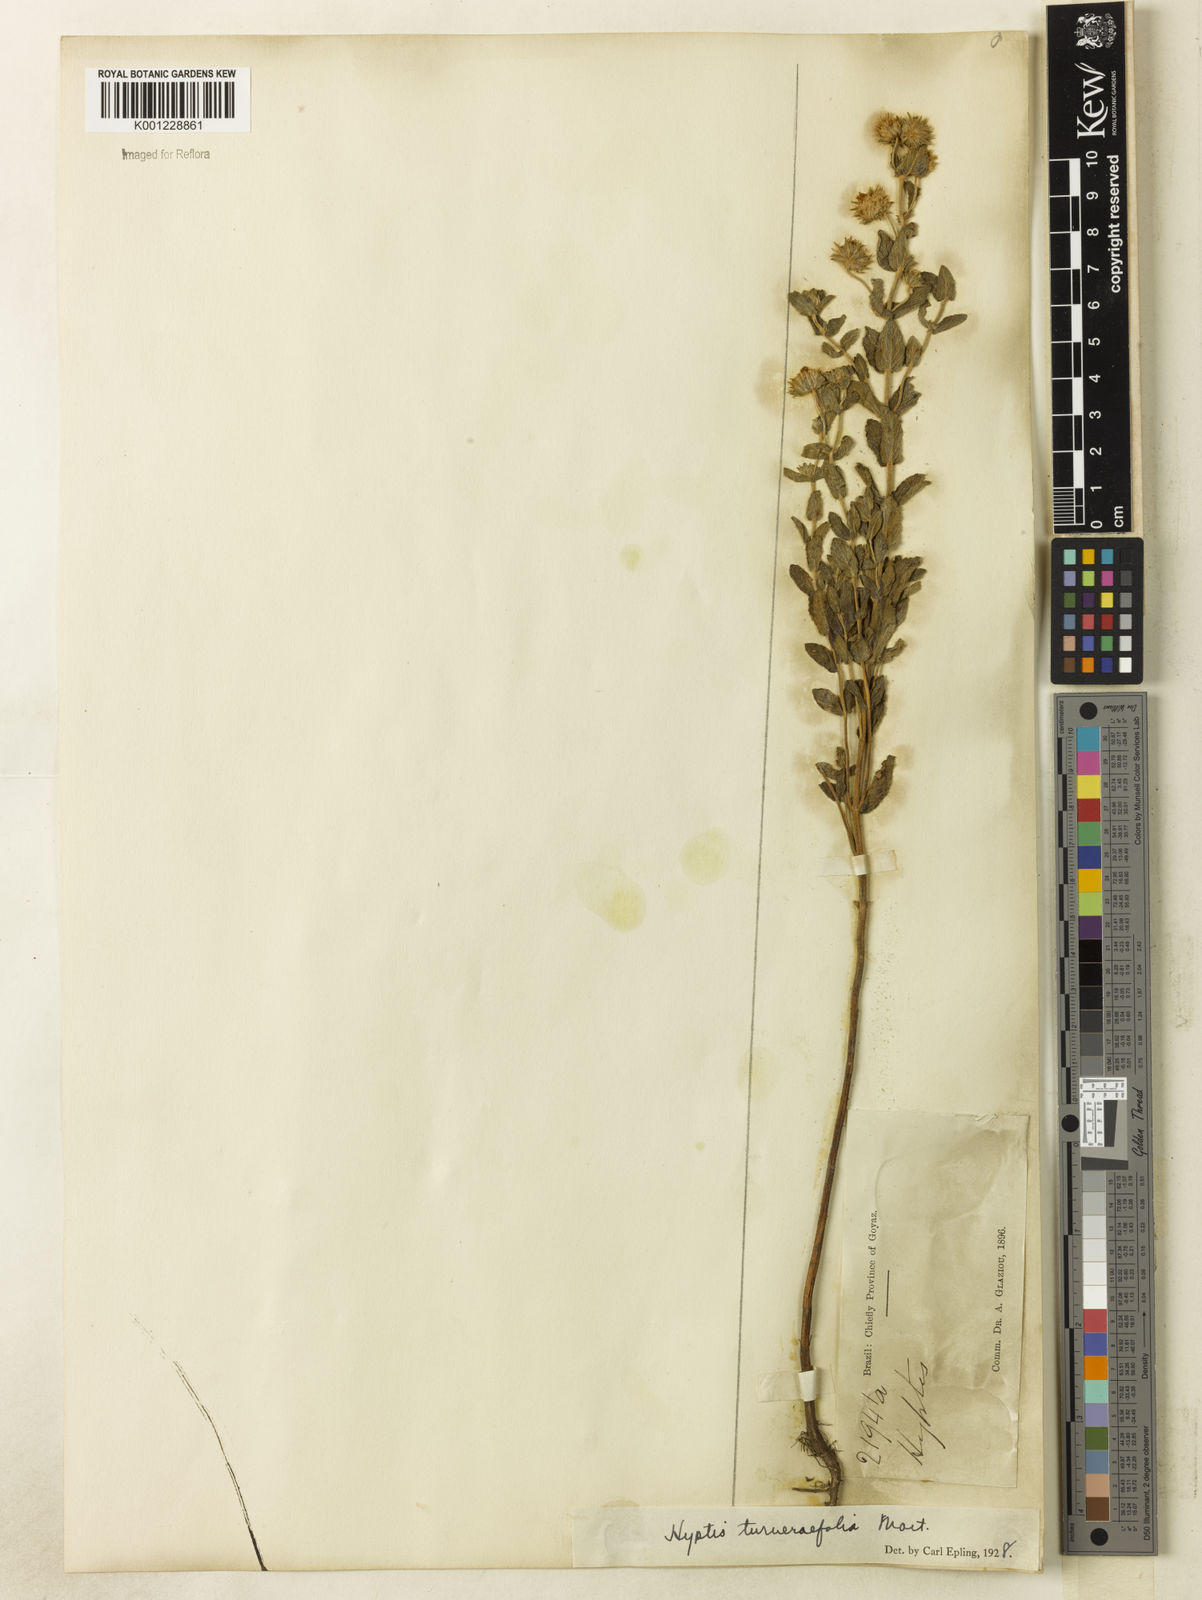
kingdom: Plantae
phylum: Tracheophyta
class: Magnoliopsida
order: Lamiales
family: Lamiaceae
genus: Hyptis
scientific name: Hyptis turnerifolia
